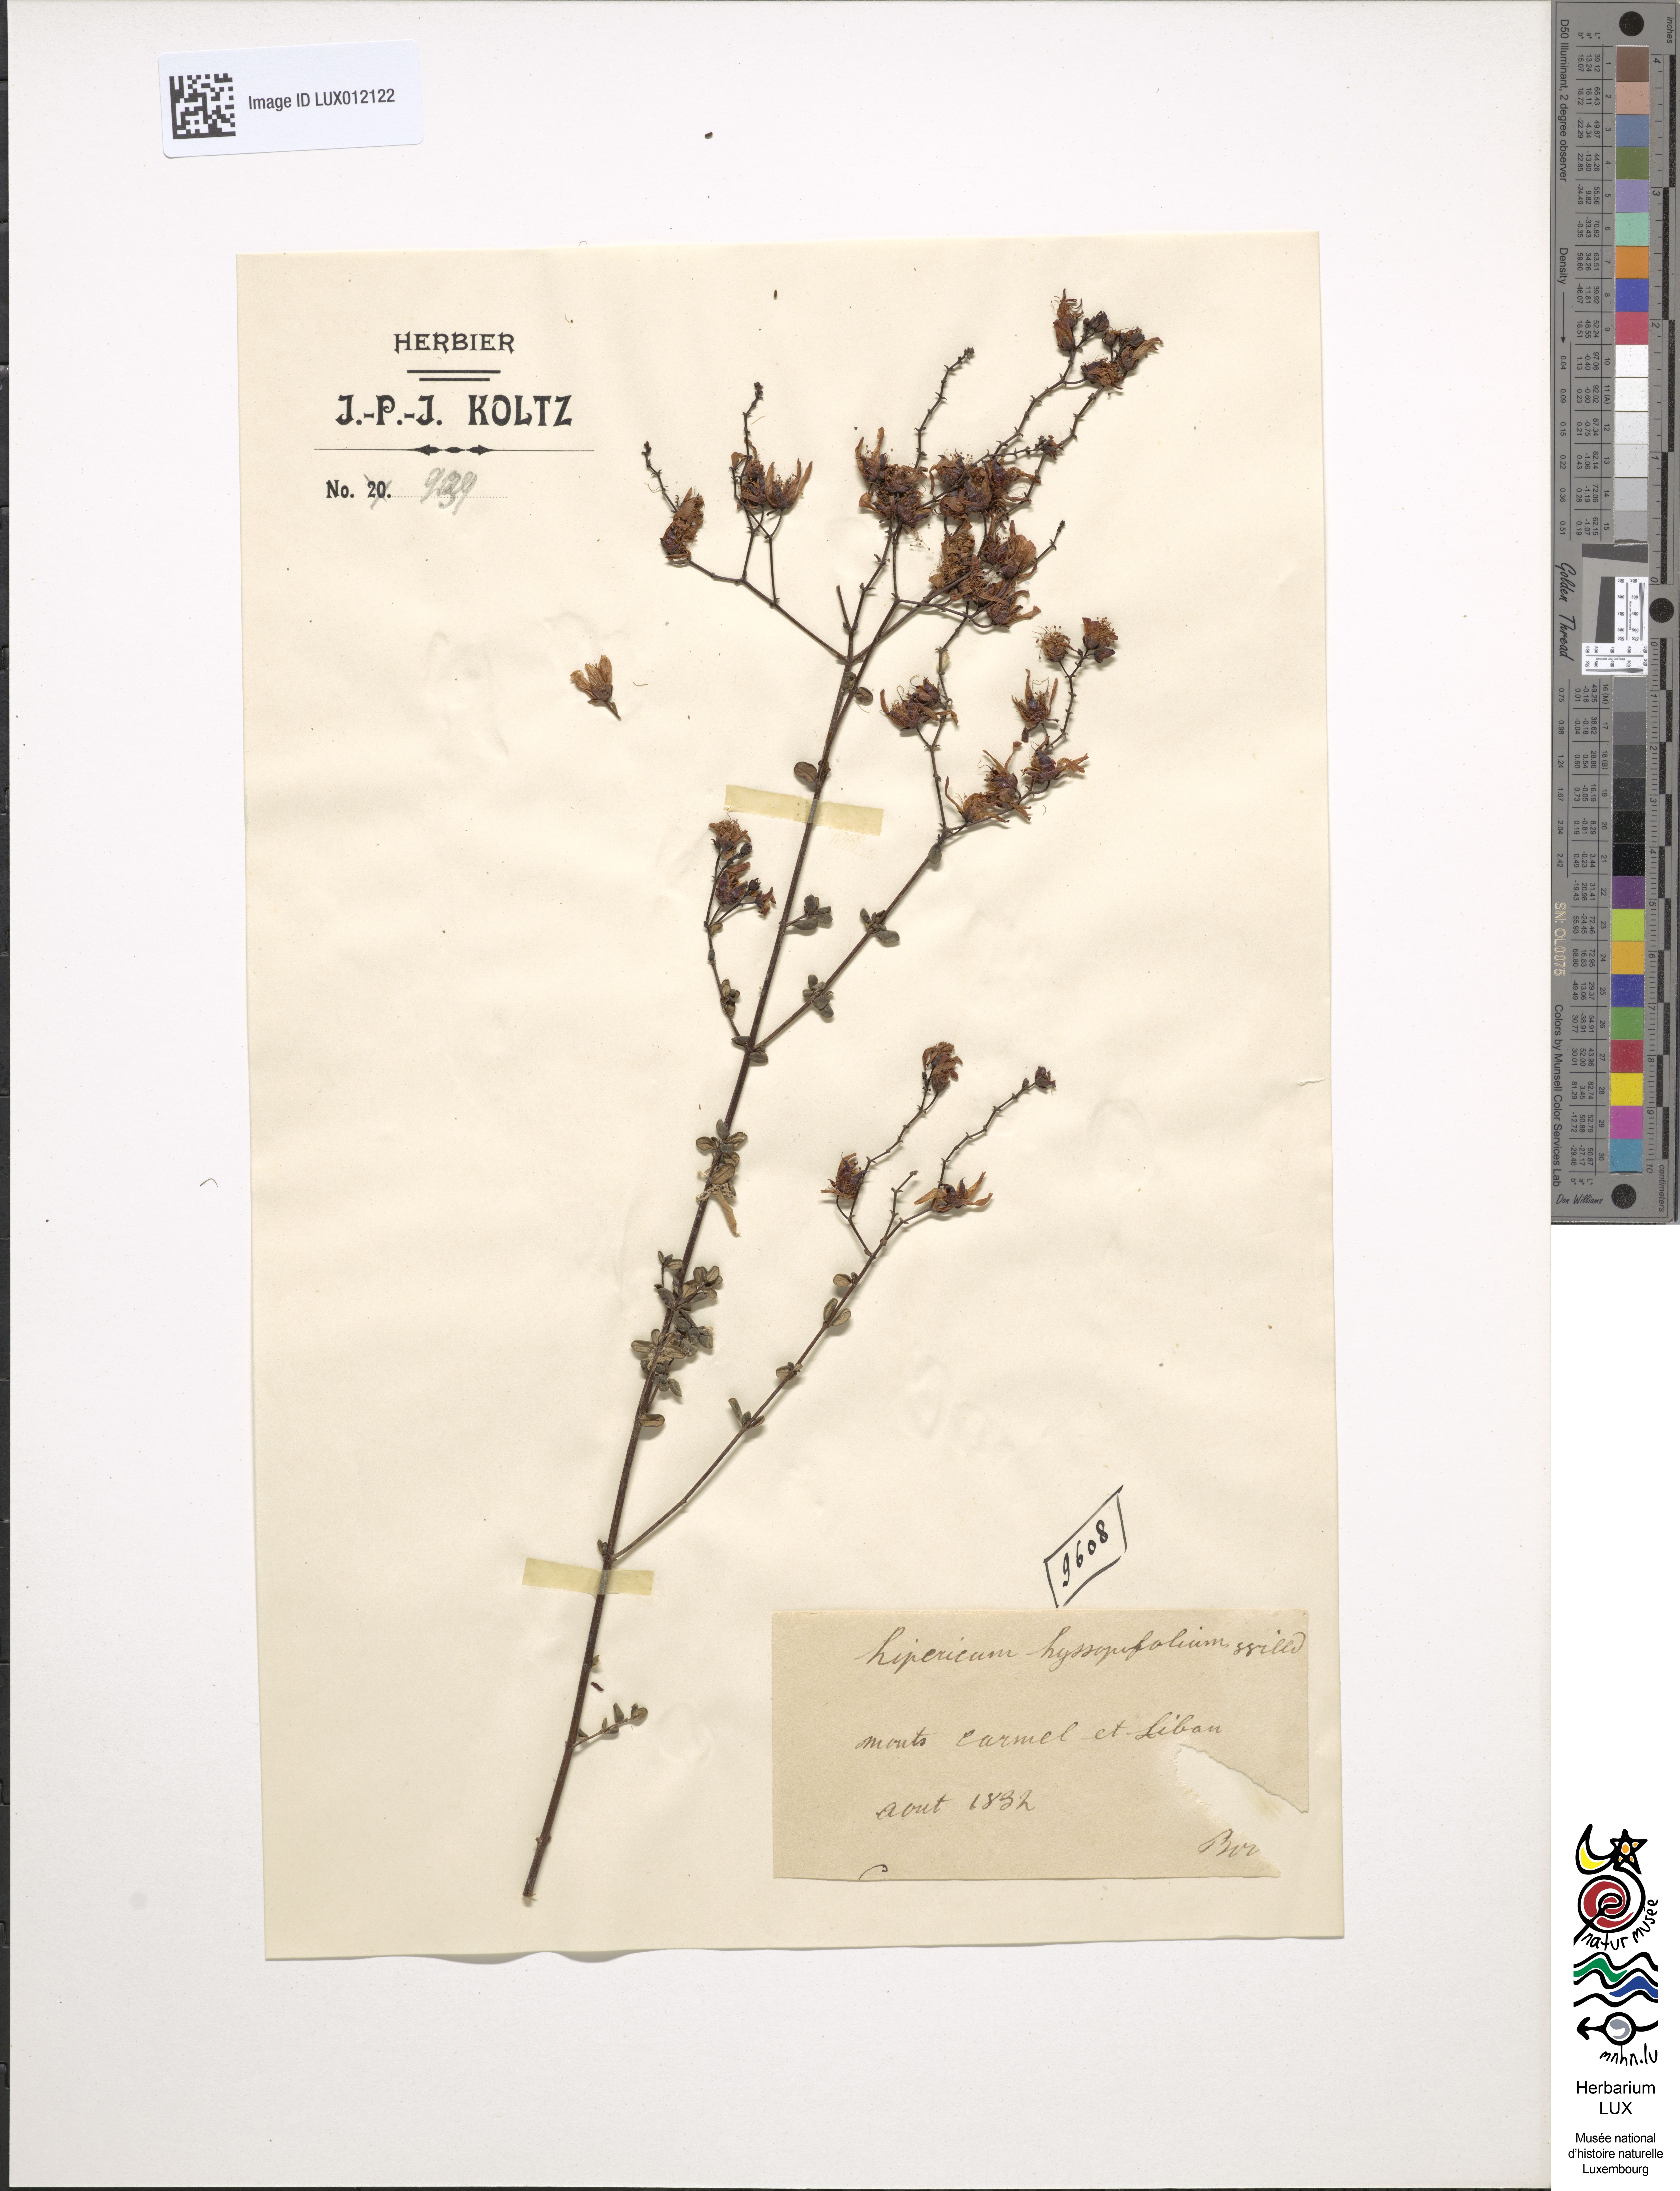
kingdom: Plantae
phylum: Tracheophyta
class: Magnoliopsida
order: Malpighiales
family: Hypericaceae
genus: Hypericum
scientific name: Hypericum hyssopifolium
